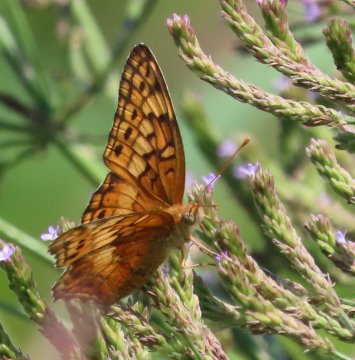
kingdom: Animalia
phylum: Arthropoda
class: Insecta
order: Lepidoptera
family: Nymphalidae
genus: Euptoieta
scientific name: Euptoieta claudia
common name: Variegated Fritillary
